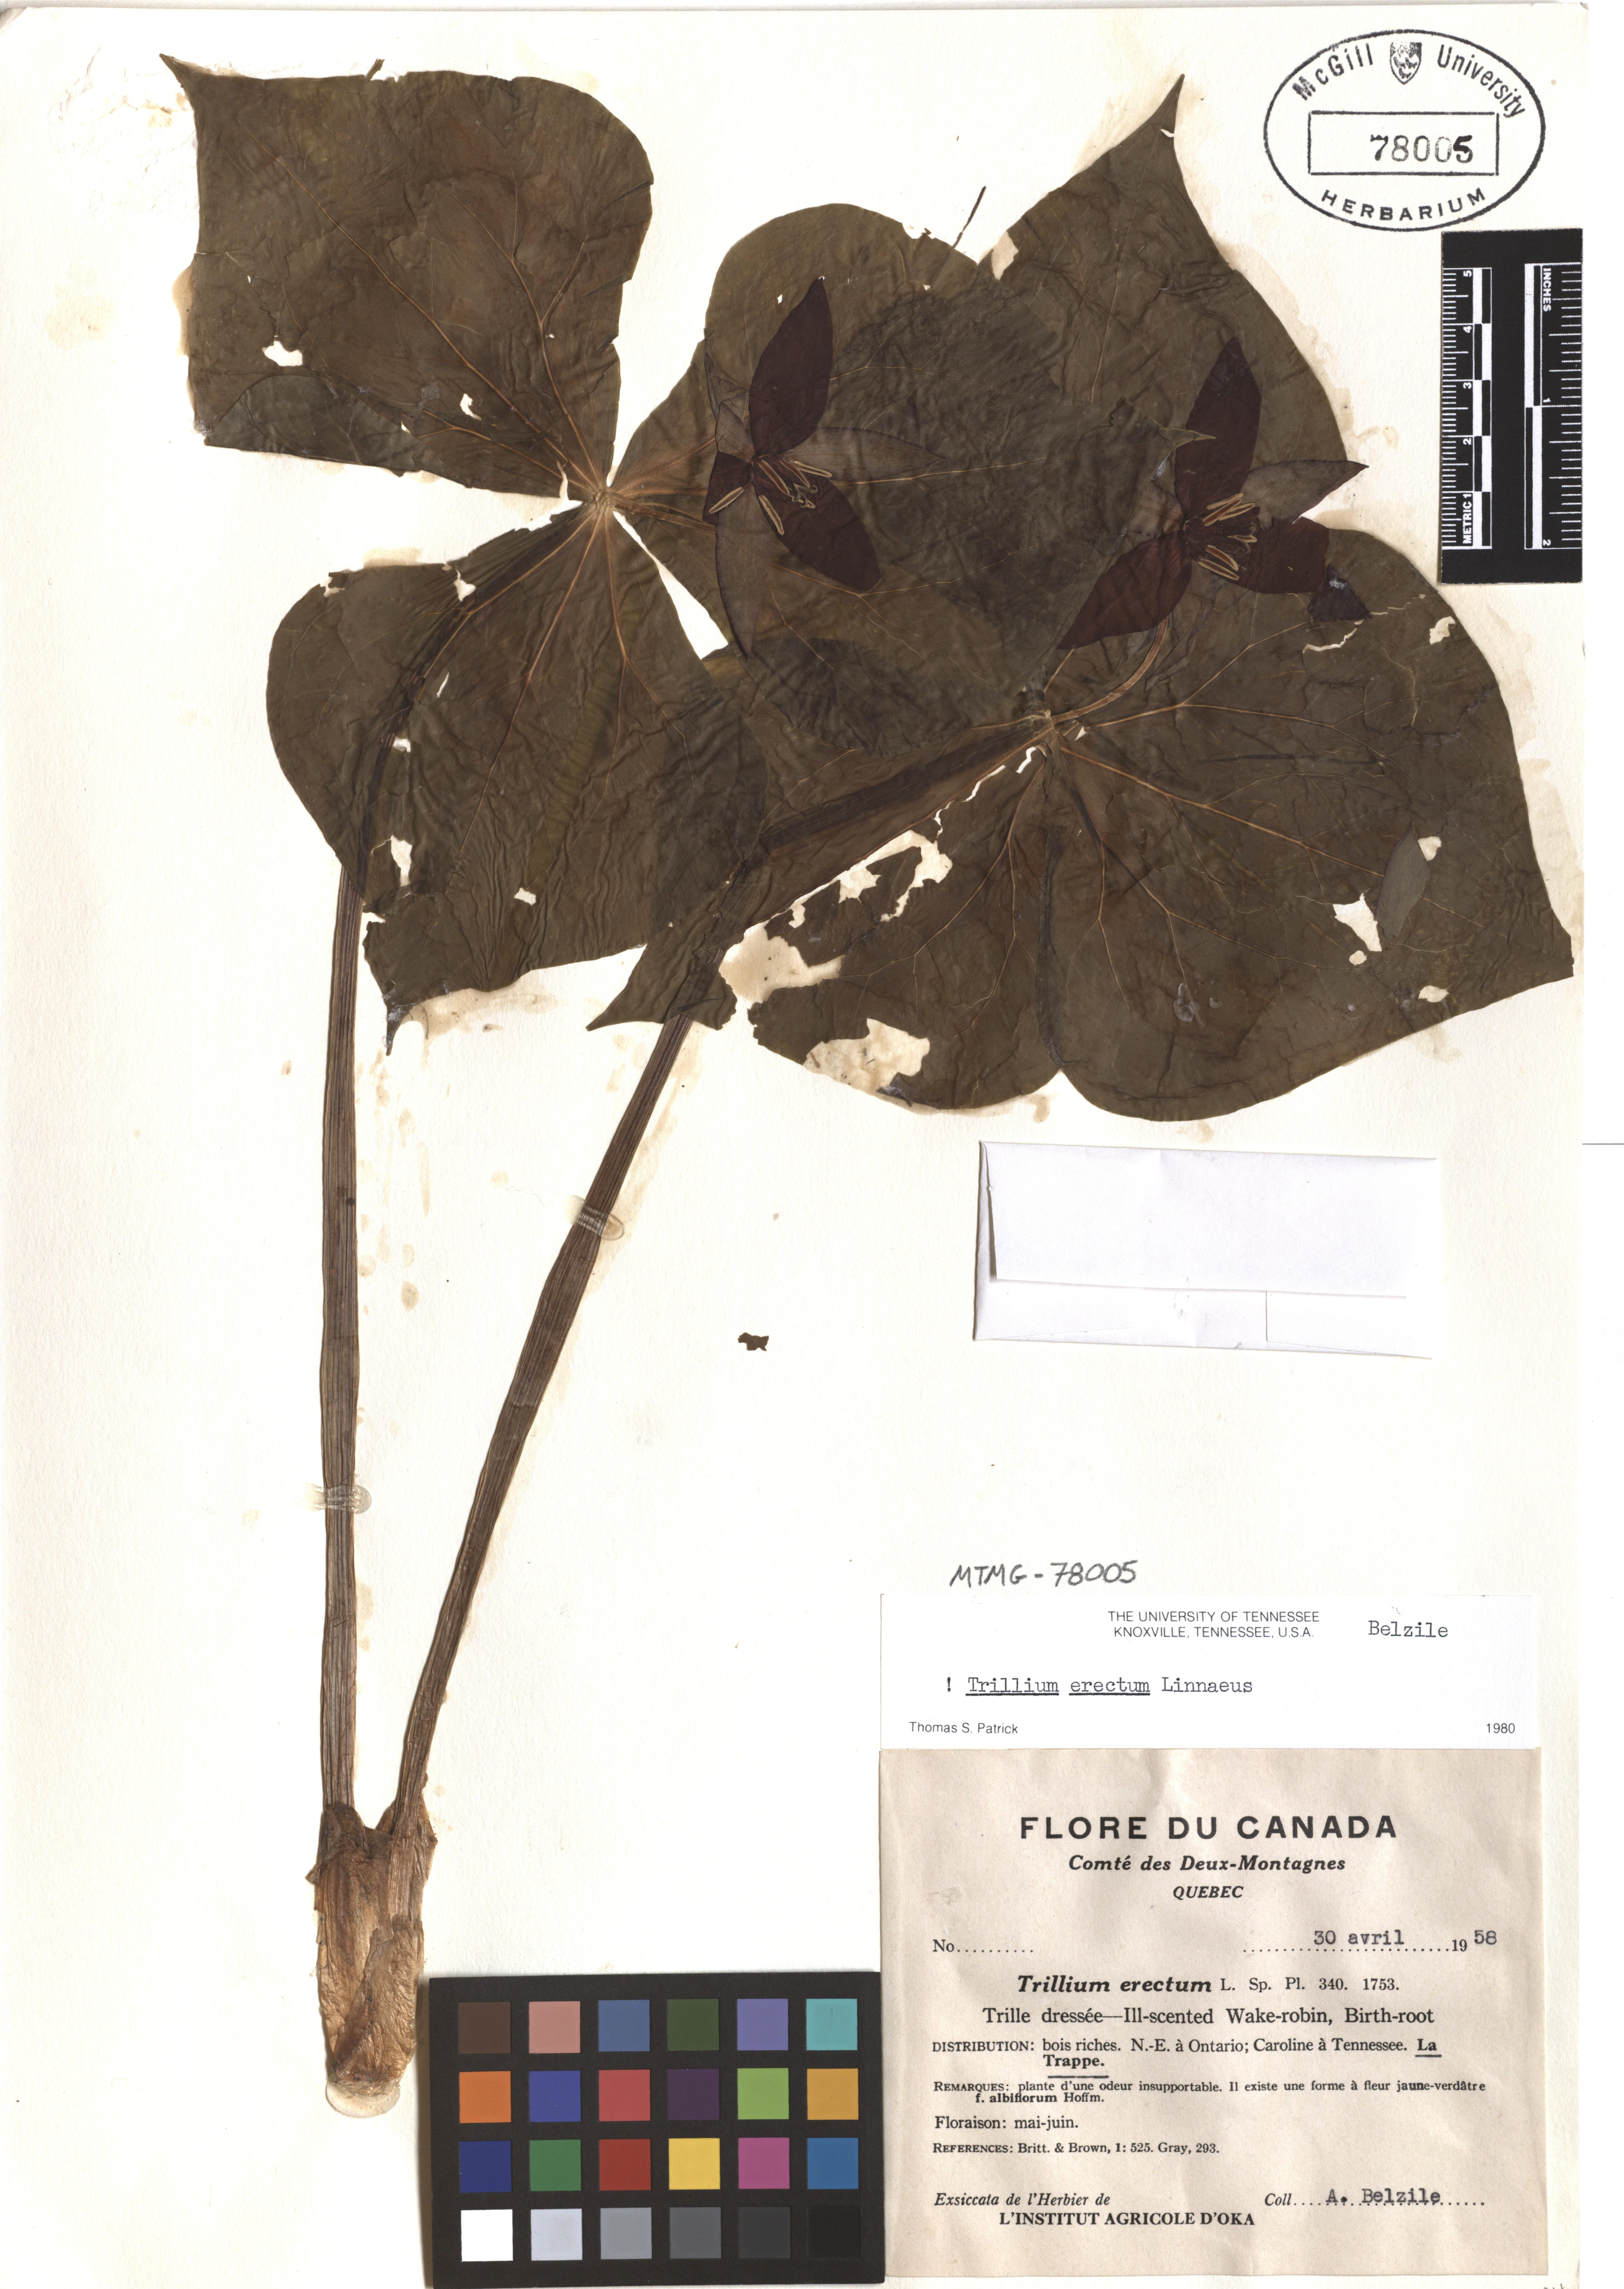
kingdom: Plantae
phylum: Tracheophyta
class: Liliopsida
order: Liliales
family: Melanthiaceae
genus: Trillium
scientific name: Trillium erectum
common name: Purple trillium
